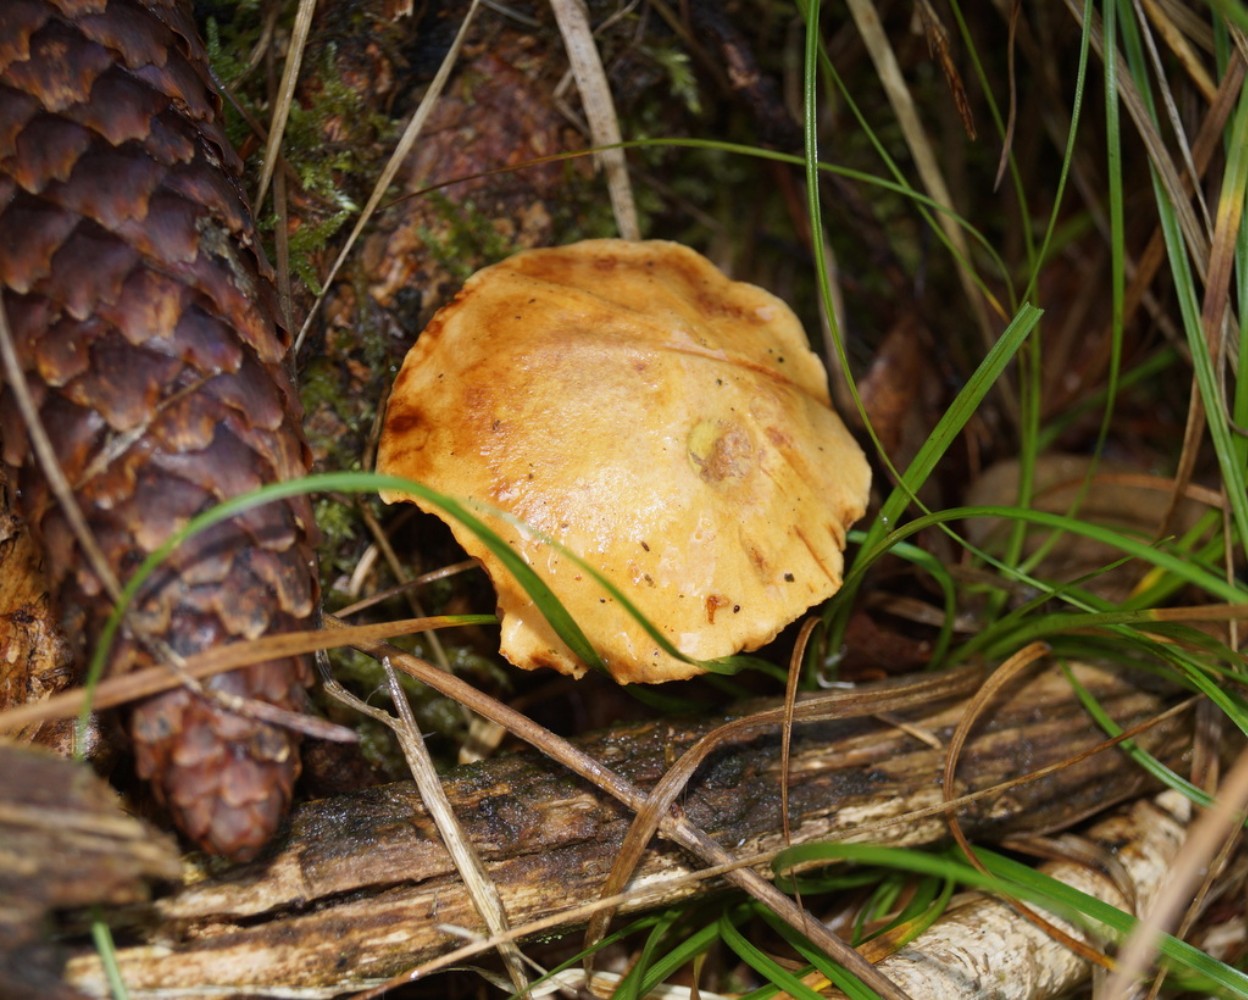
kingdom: Fungi
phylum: Basidiomycota
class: Agaricomycetes
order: Boletales
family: Boletaceae
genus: Chalciporus
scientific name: Chalciporus piperatus
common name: peberrørhat
